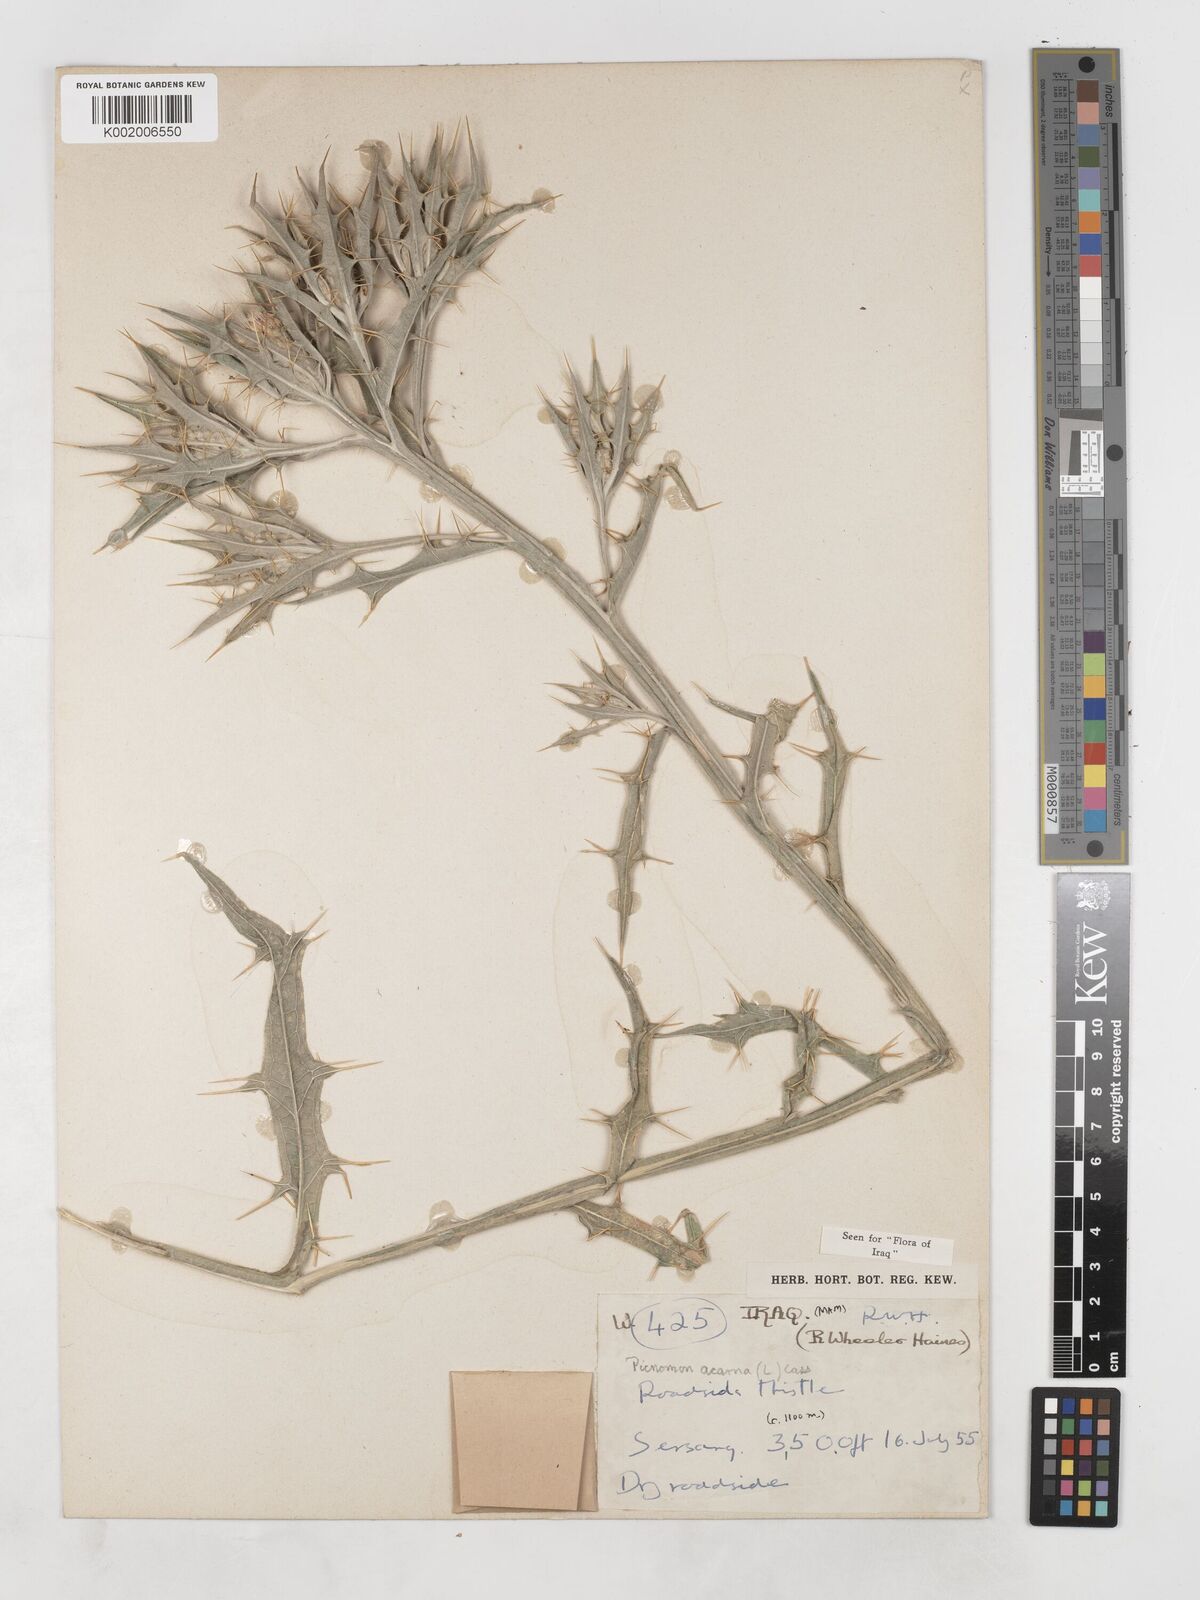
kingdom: Plantae
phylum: Tracheophyta
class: Magnoliopsida
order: Asterales
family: Asteraceae
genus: Picnomon
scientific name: Picnomon acarna
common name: Soldier thistle
